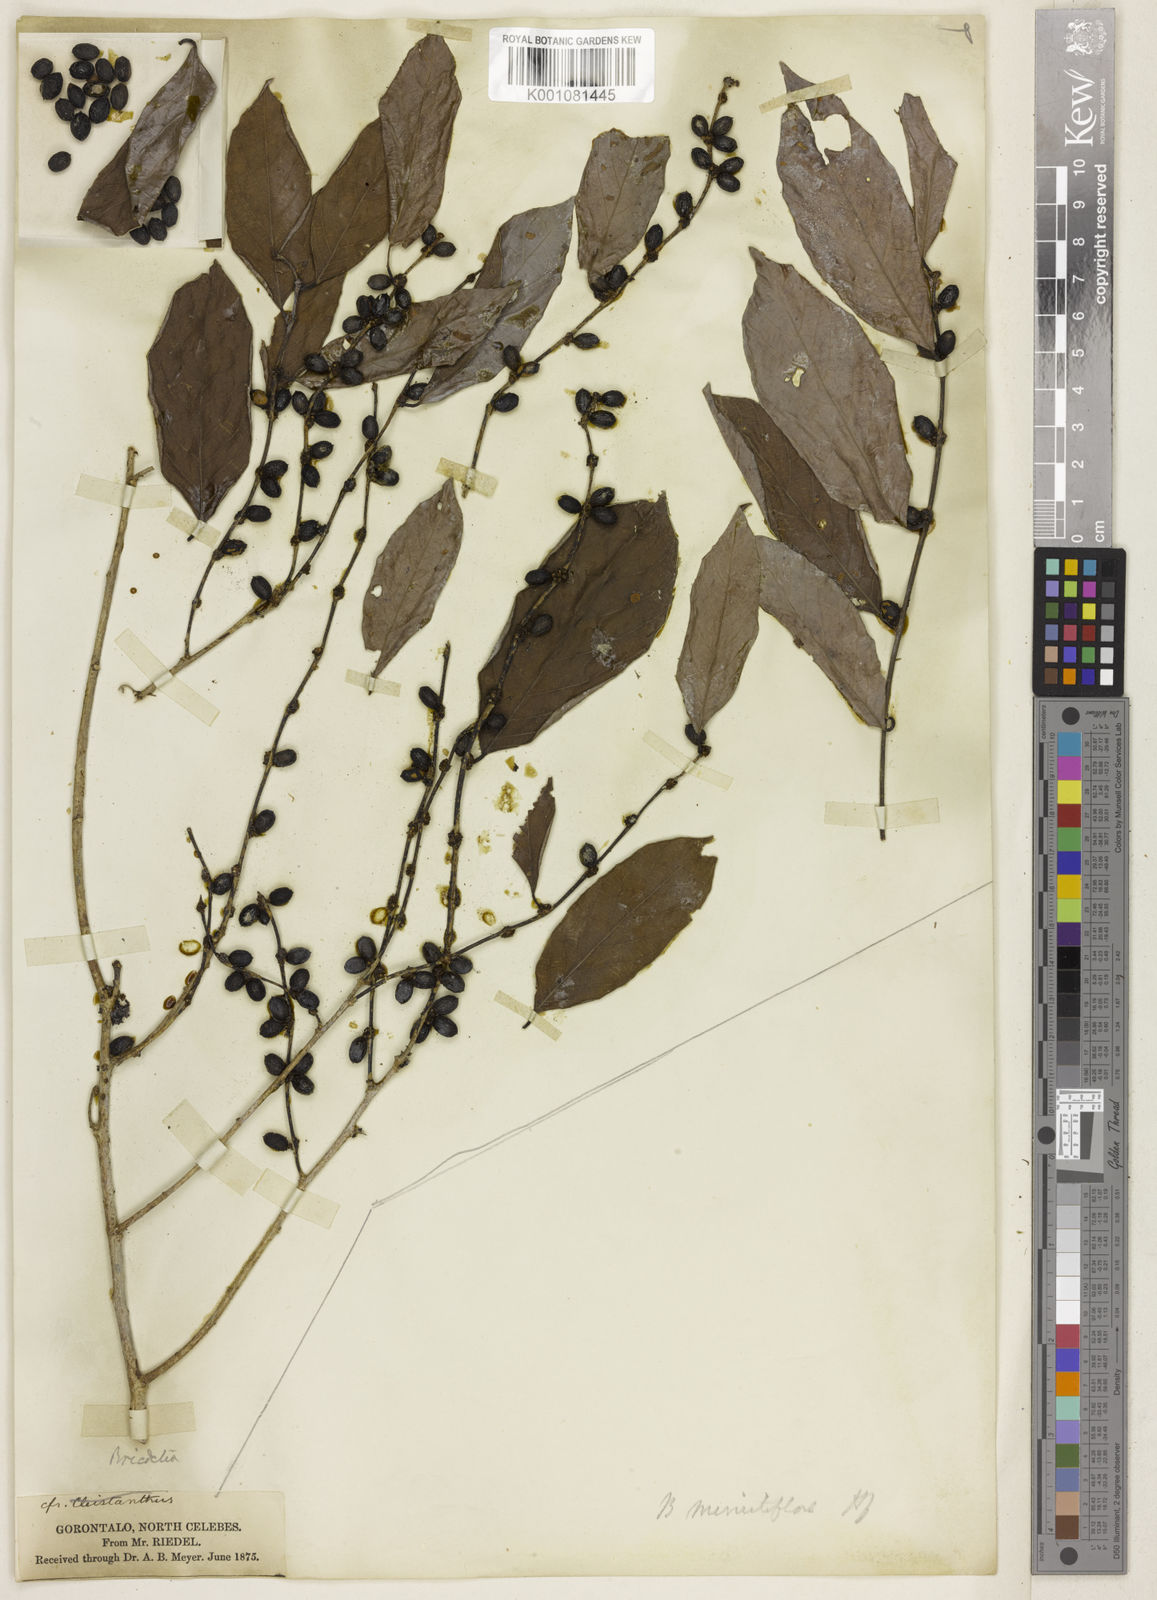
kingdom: Plantae
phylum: Tracheophyta
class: Magnoliopsida
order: Malpighiales
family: Phyllanthaceae
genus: Bridelia
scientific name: Bridelia insulana
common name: Grey-birch
